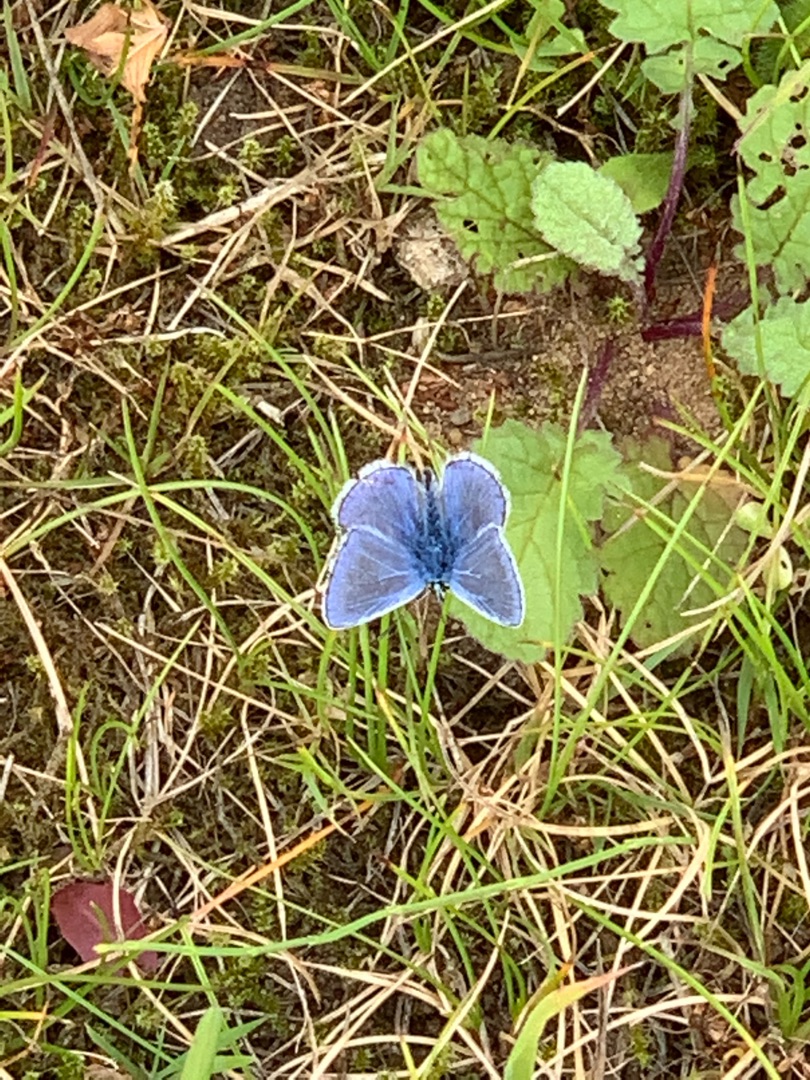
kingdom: Animalia
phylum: Arthropoda
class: Insecta
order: Lepidoptera
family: Lycaenidae
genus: Polyommatus
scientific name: Polyommatus icarus
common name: Almindelig blåfugl
